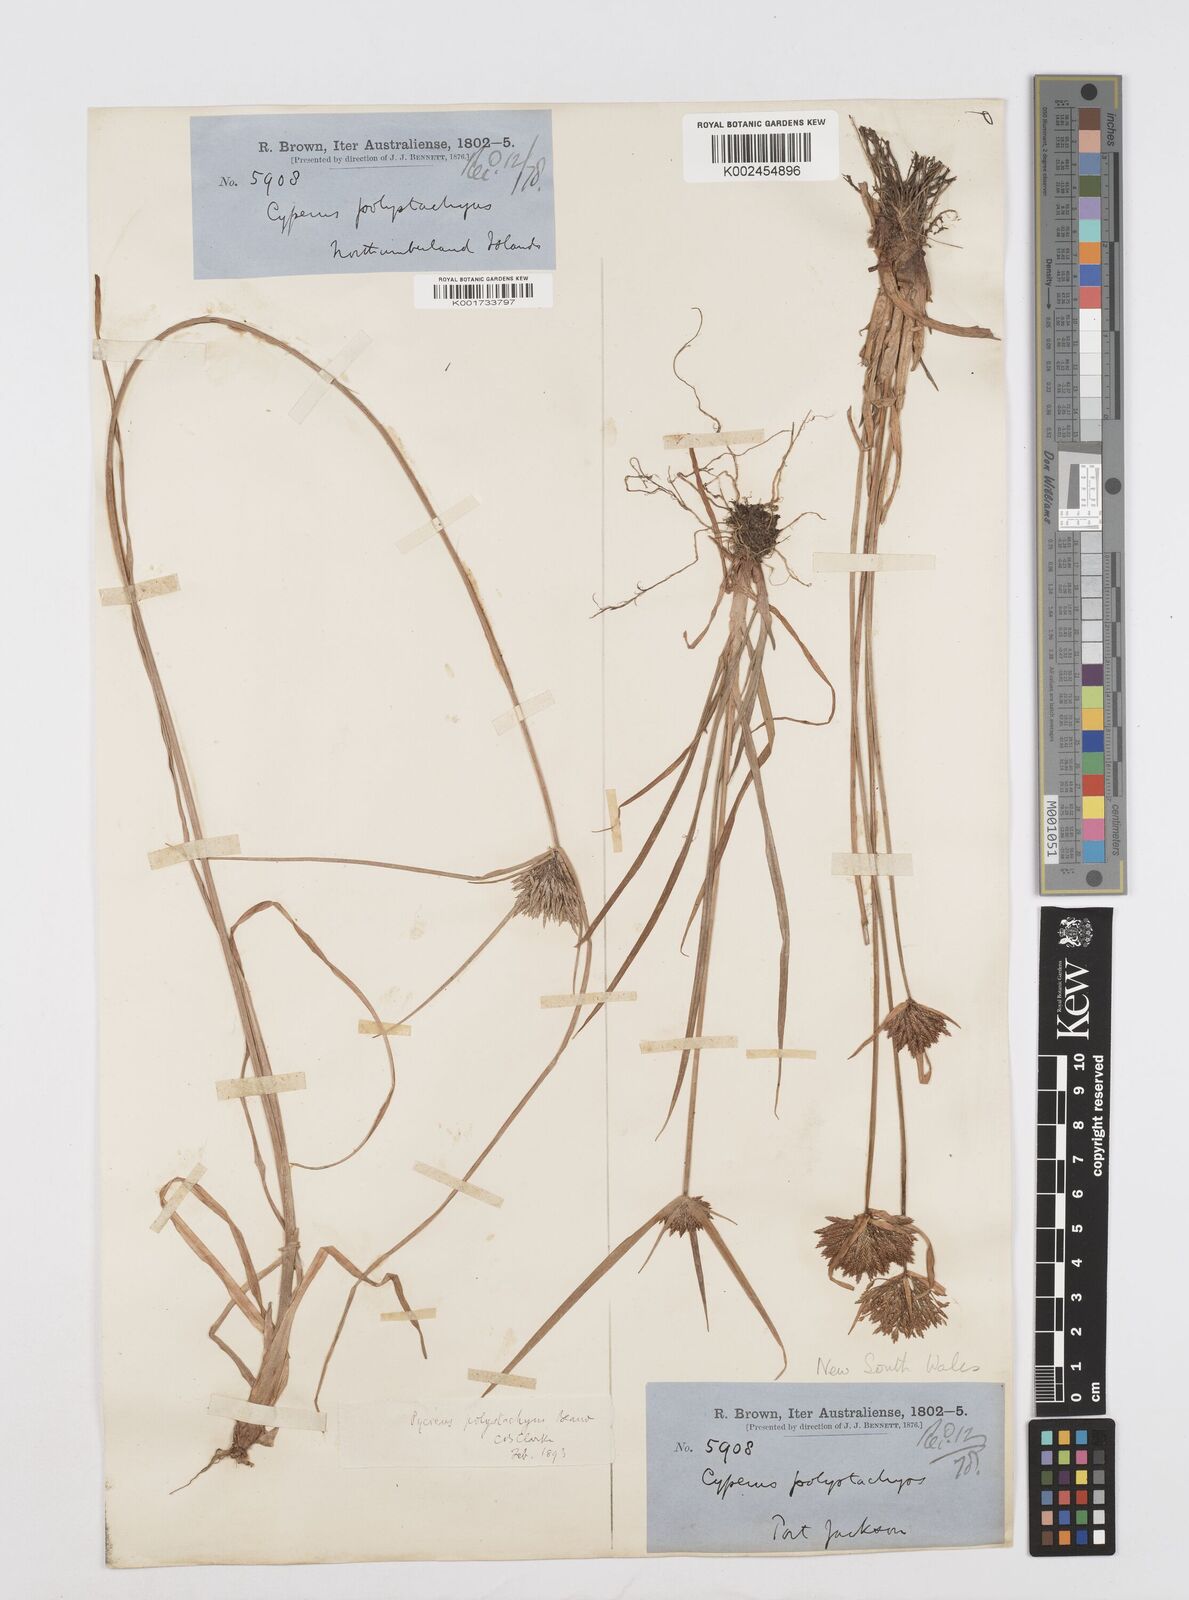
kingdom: Plantae
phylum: Tracheophyta
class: Liliopsida
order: Poales
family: Cyperaceae
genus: Cyperus
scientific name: Cyperus polystachyos
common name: Bunchy flat sedge
